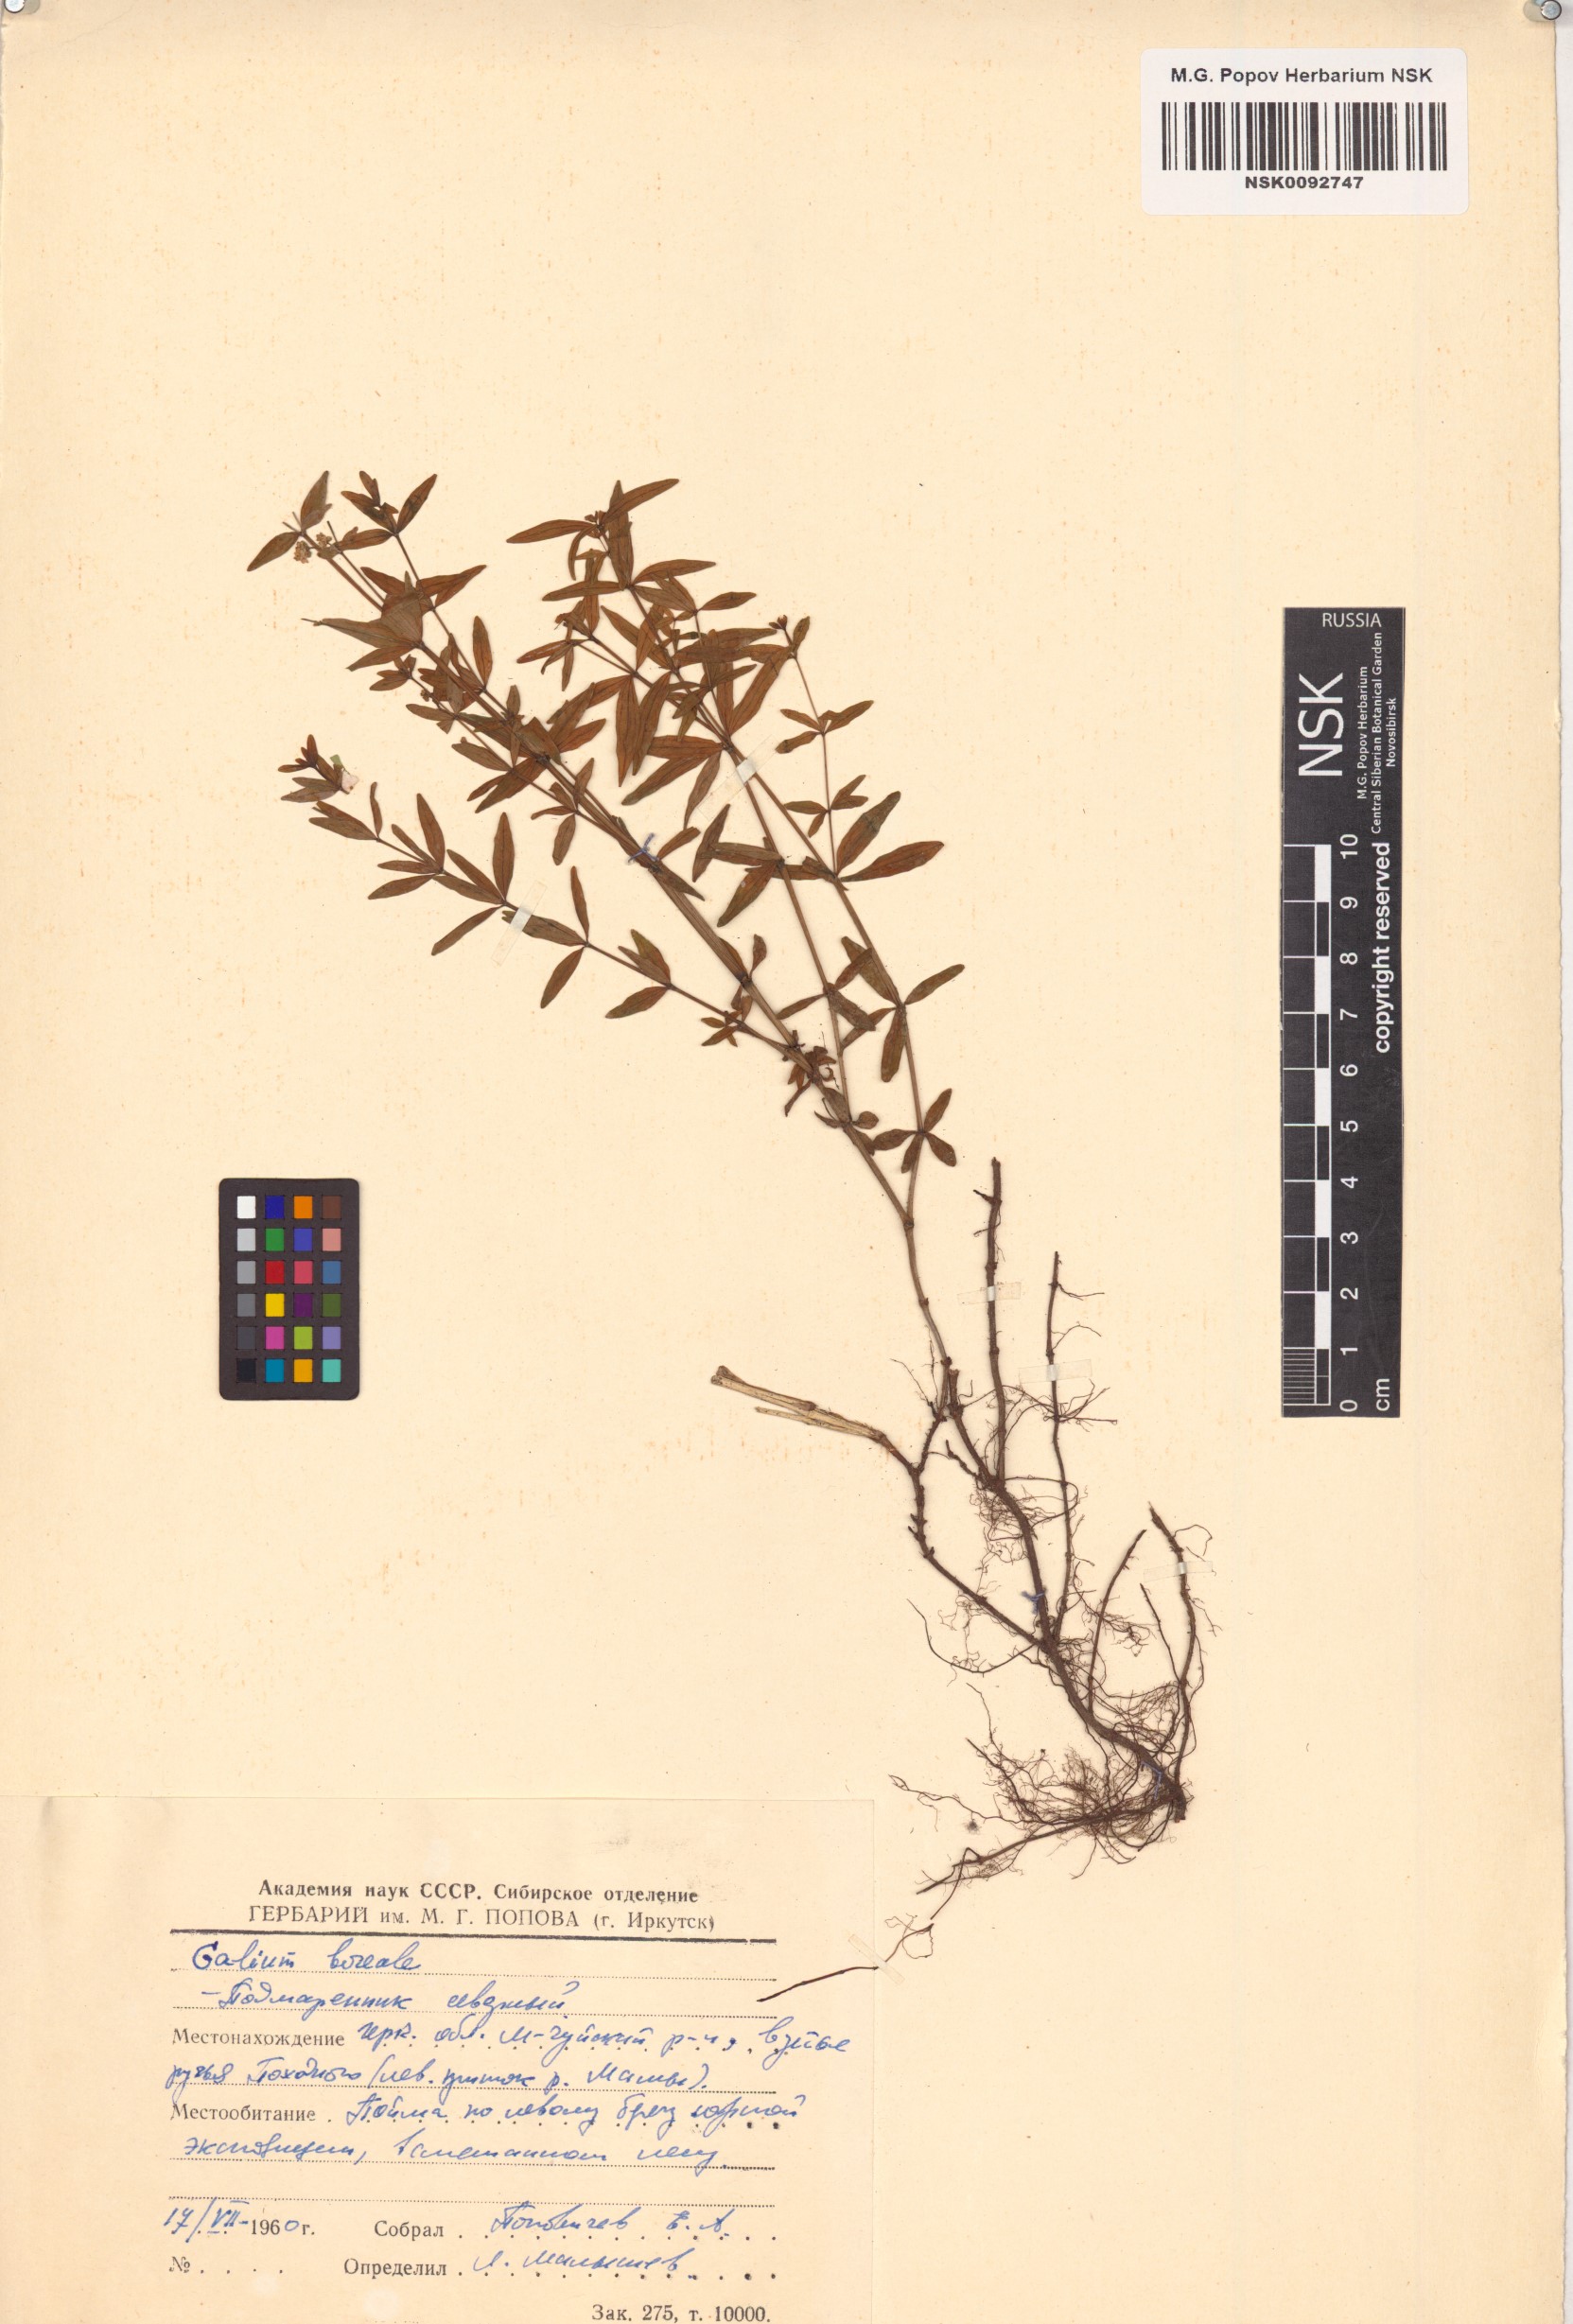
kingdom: Plantae
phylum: Tracheophyta
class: Magnoliopsida
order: Gentianales
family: Rubiaceae
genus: Galium
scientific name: Galium boreale
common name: Northern bedstraw
